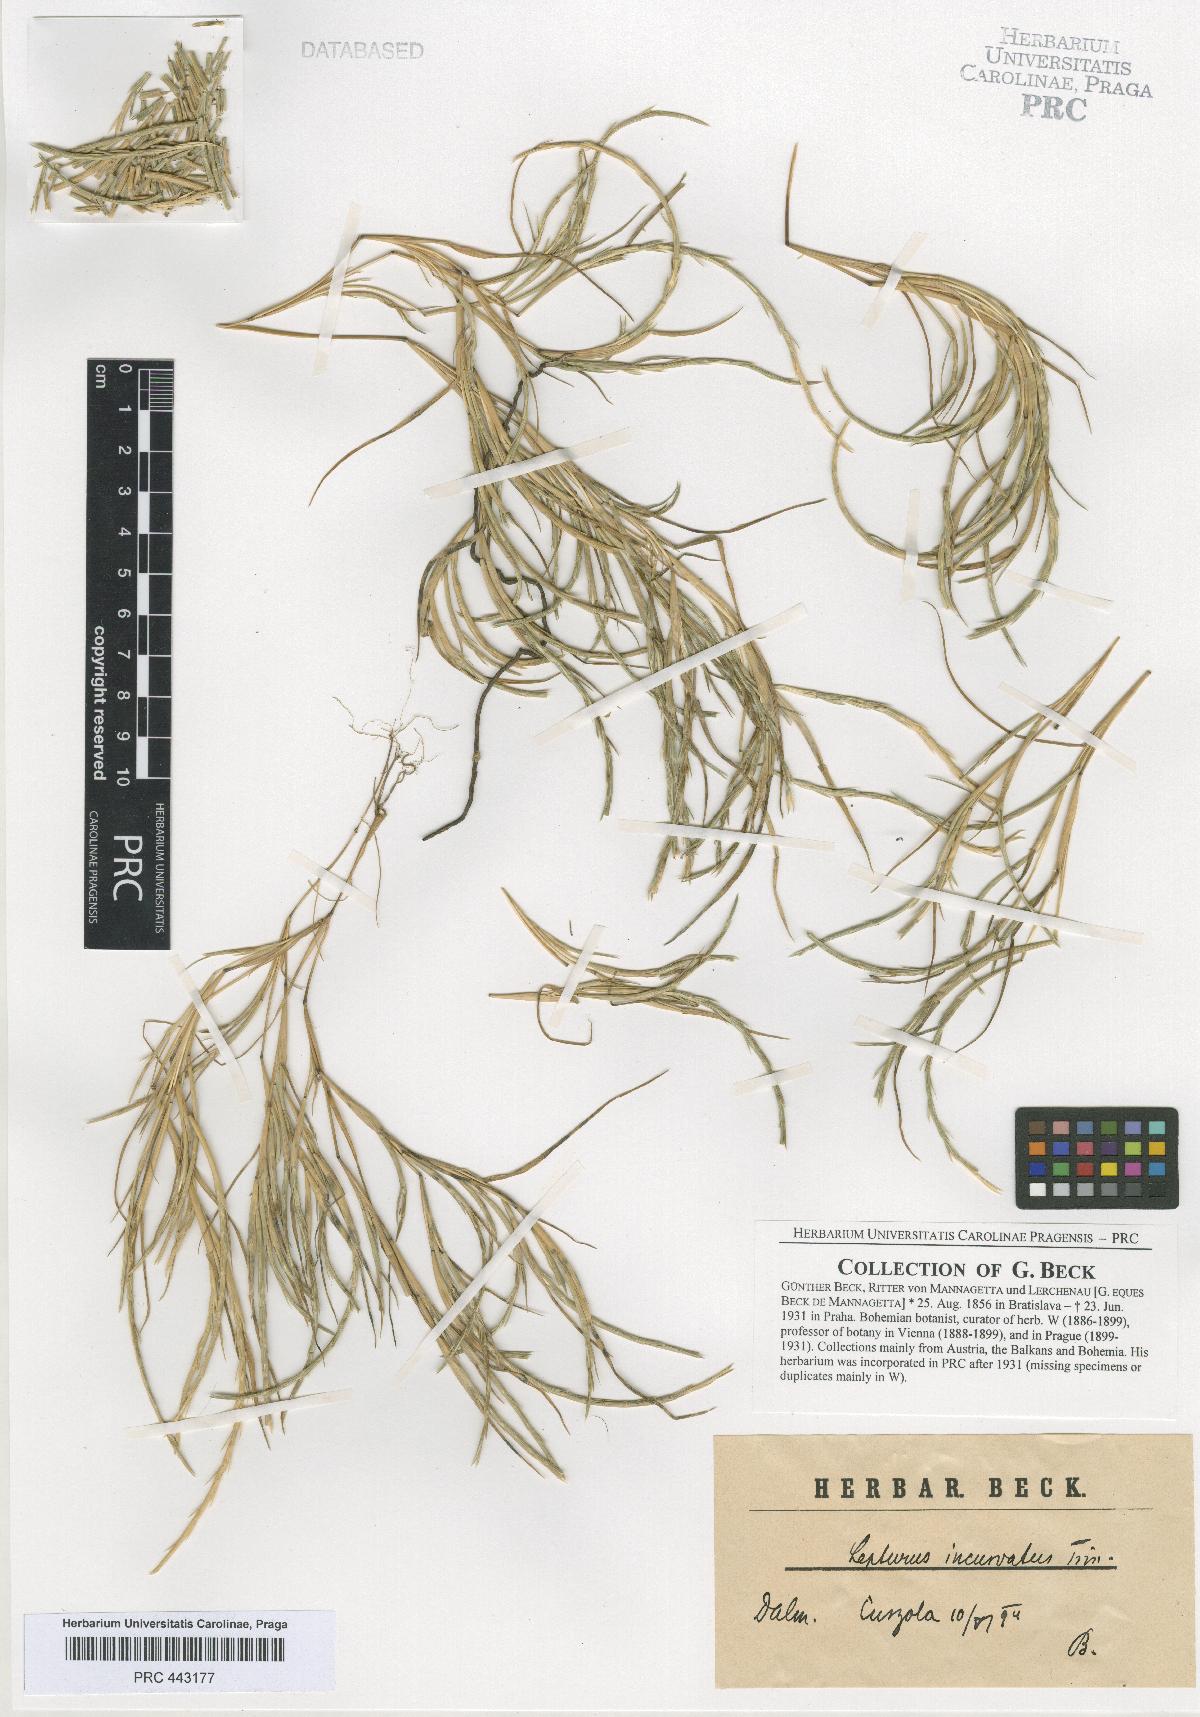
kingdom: Plantae
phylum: Tracheophyta
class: Liliopsida
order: Poales
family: Poaceae
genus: Parapholis
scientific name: Parapholis incurva
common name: Curved sicklegrass
